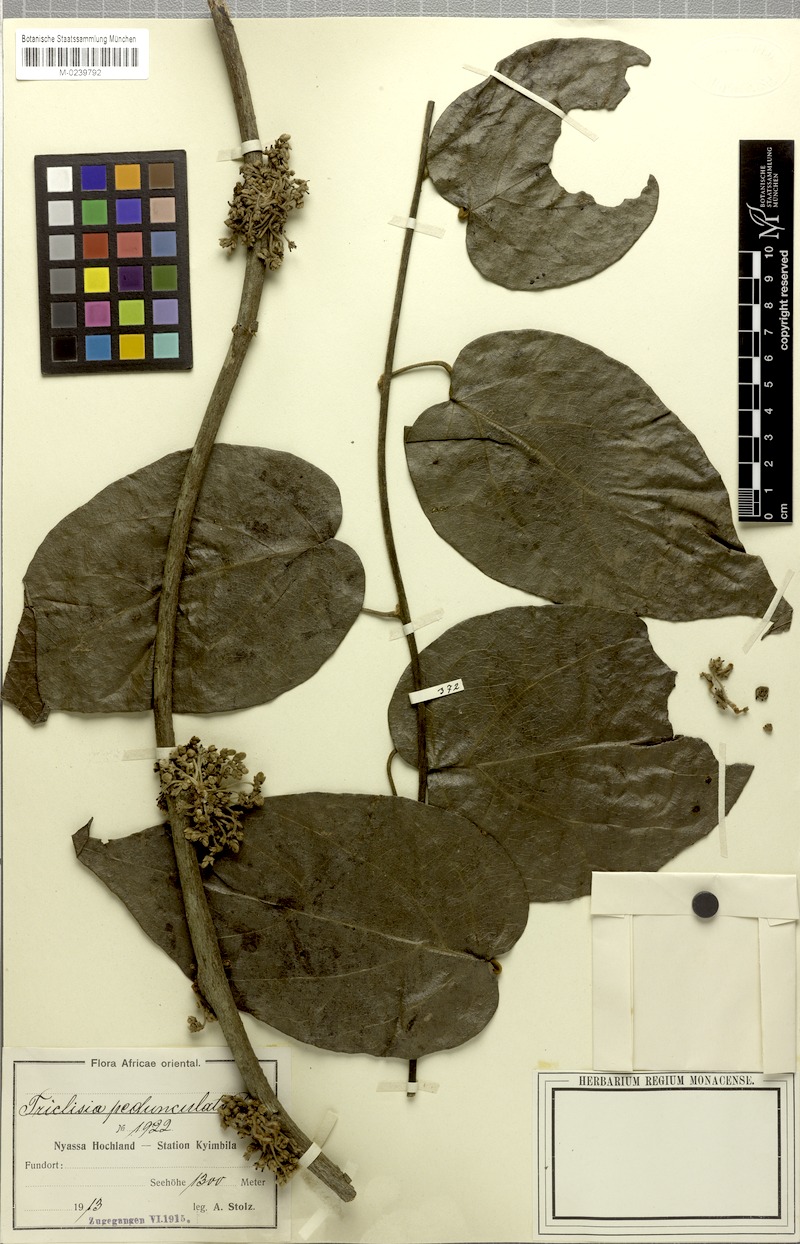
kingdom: Plantae
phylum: Tracheophyta
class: Magnoliopsida
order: Ranunculales
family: Menispermaceae
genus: Triclisia
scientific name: Triclisia sacleuxii
